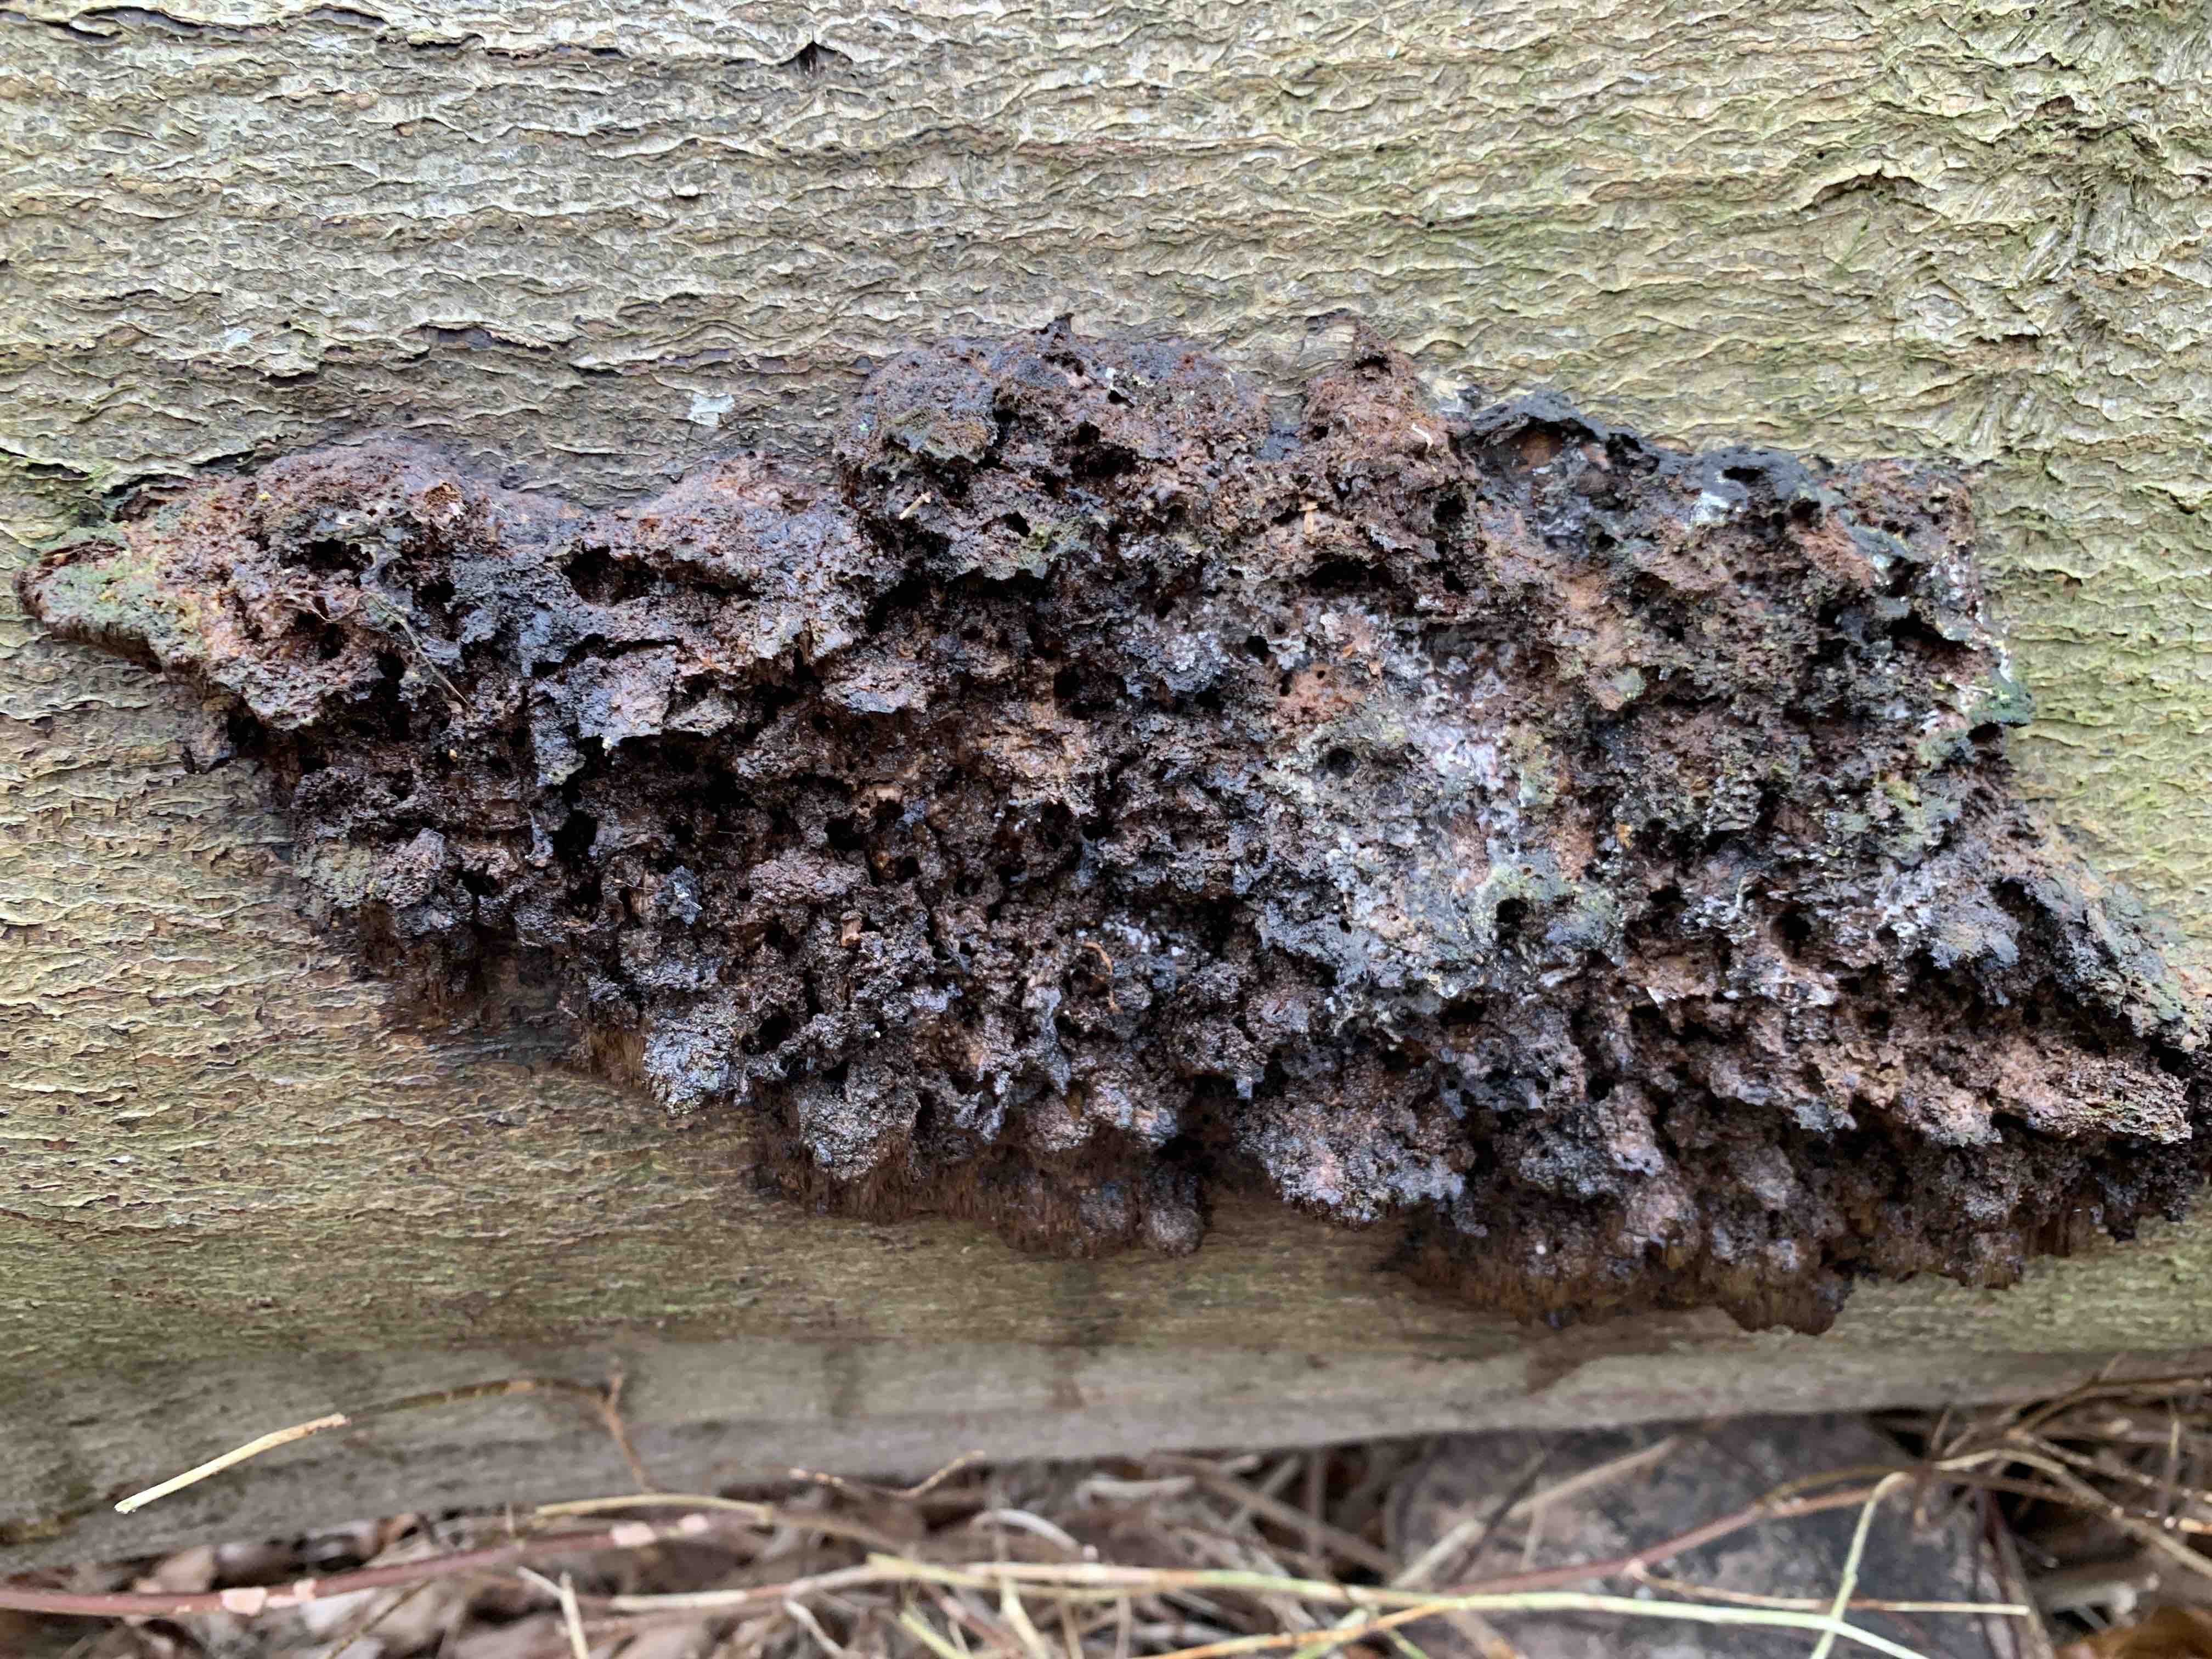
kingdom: Fungi
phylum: Basidiomycota
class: Agaricomycetes
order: Hymenochaetales
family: Hymenochaetaceae
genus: Mensularia
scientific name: Mensularia nodulosa
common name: bøge-spejlporesvamp
